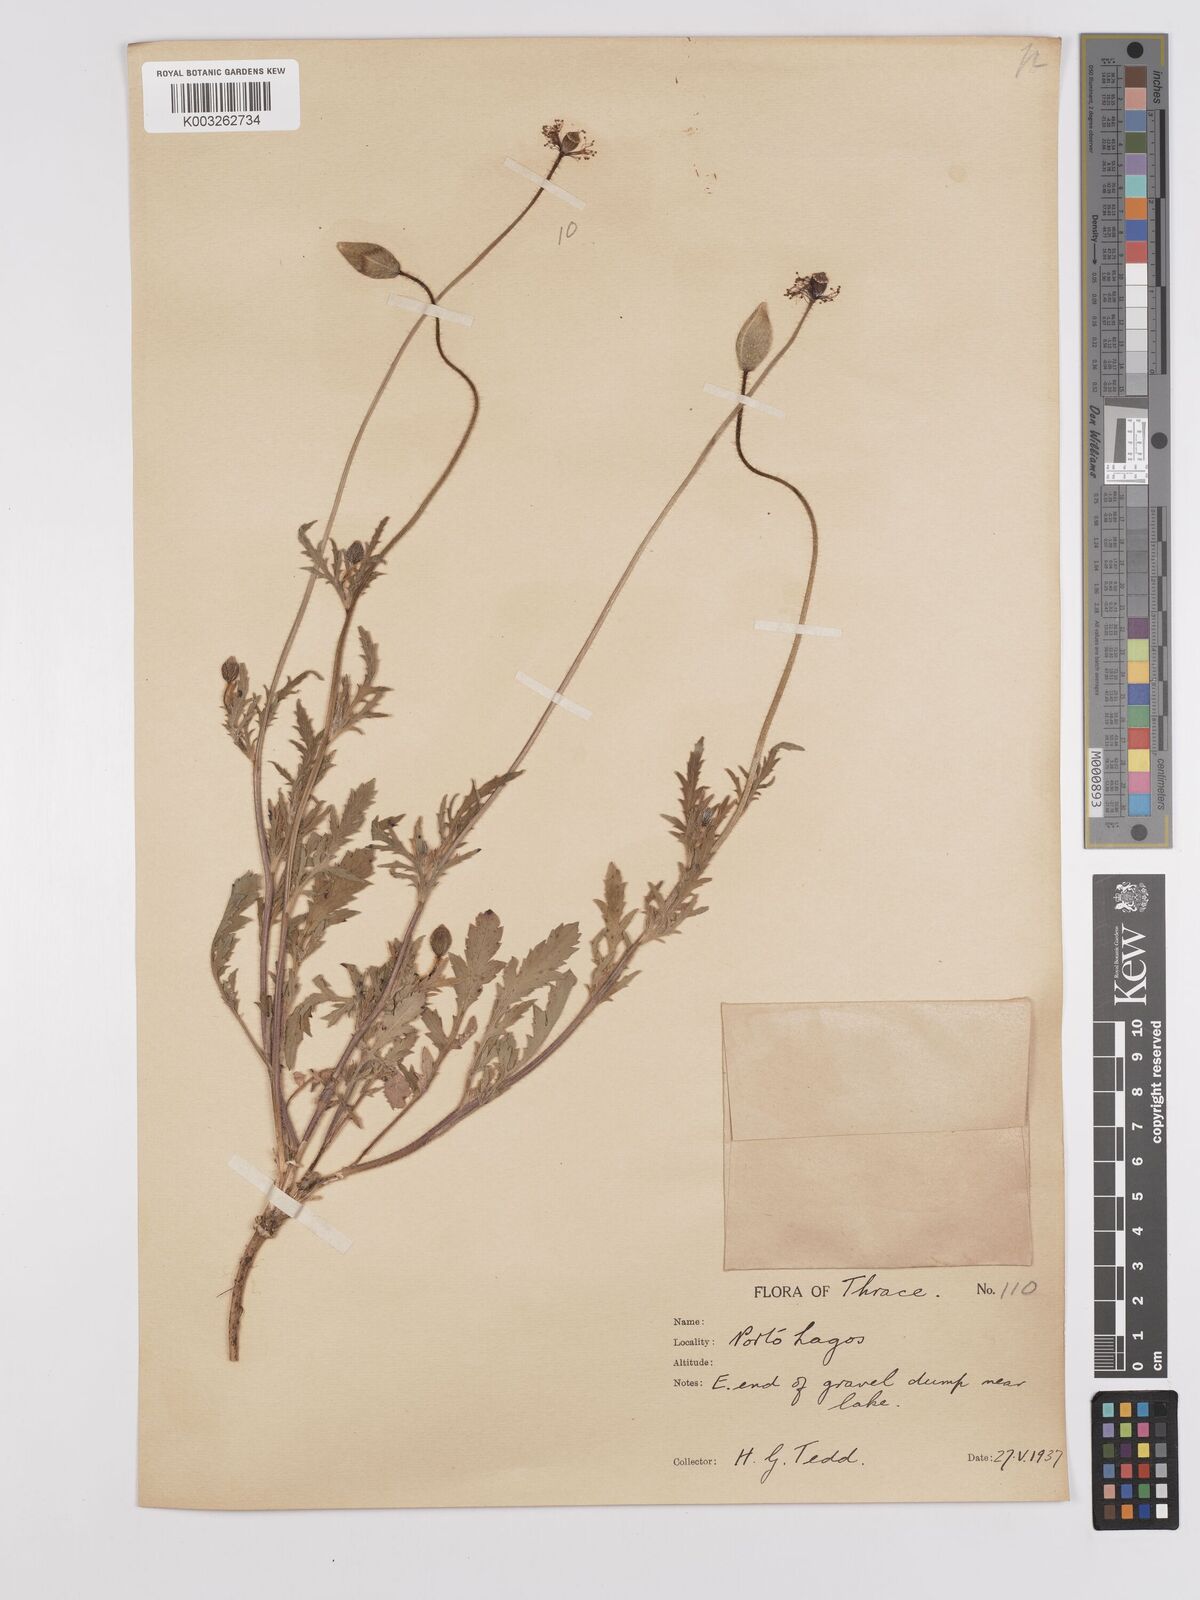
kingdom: Plantae
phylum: Tracheophyta
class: Magnoliopsida
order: Ranunculales
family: Papaveraceae
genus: Papaver
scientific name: Papaver
